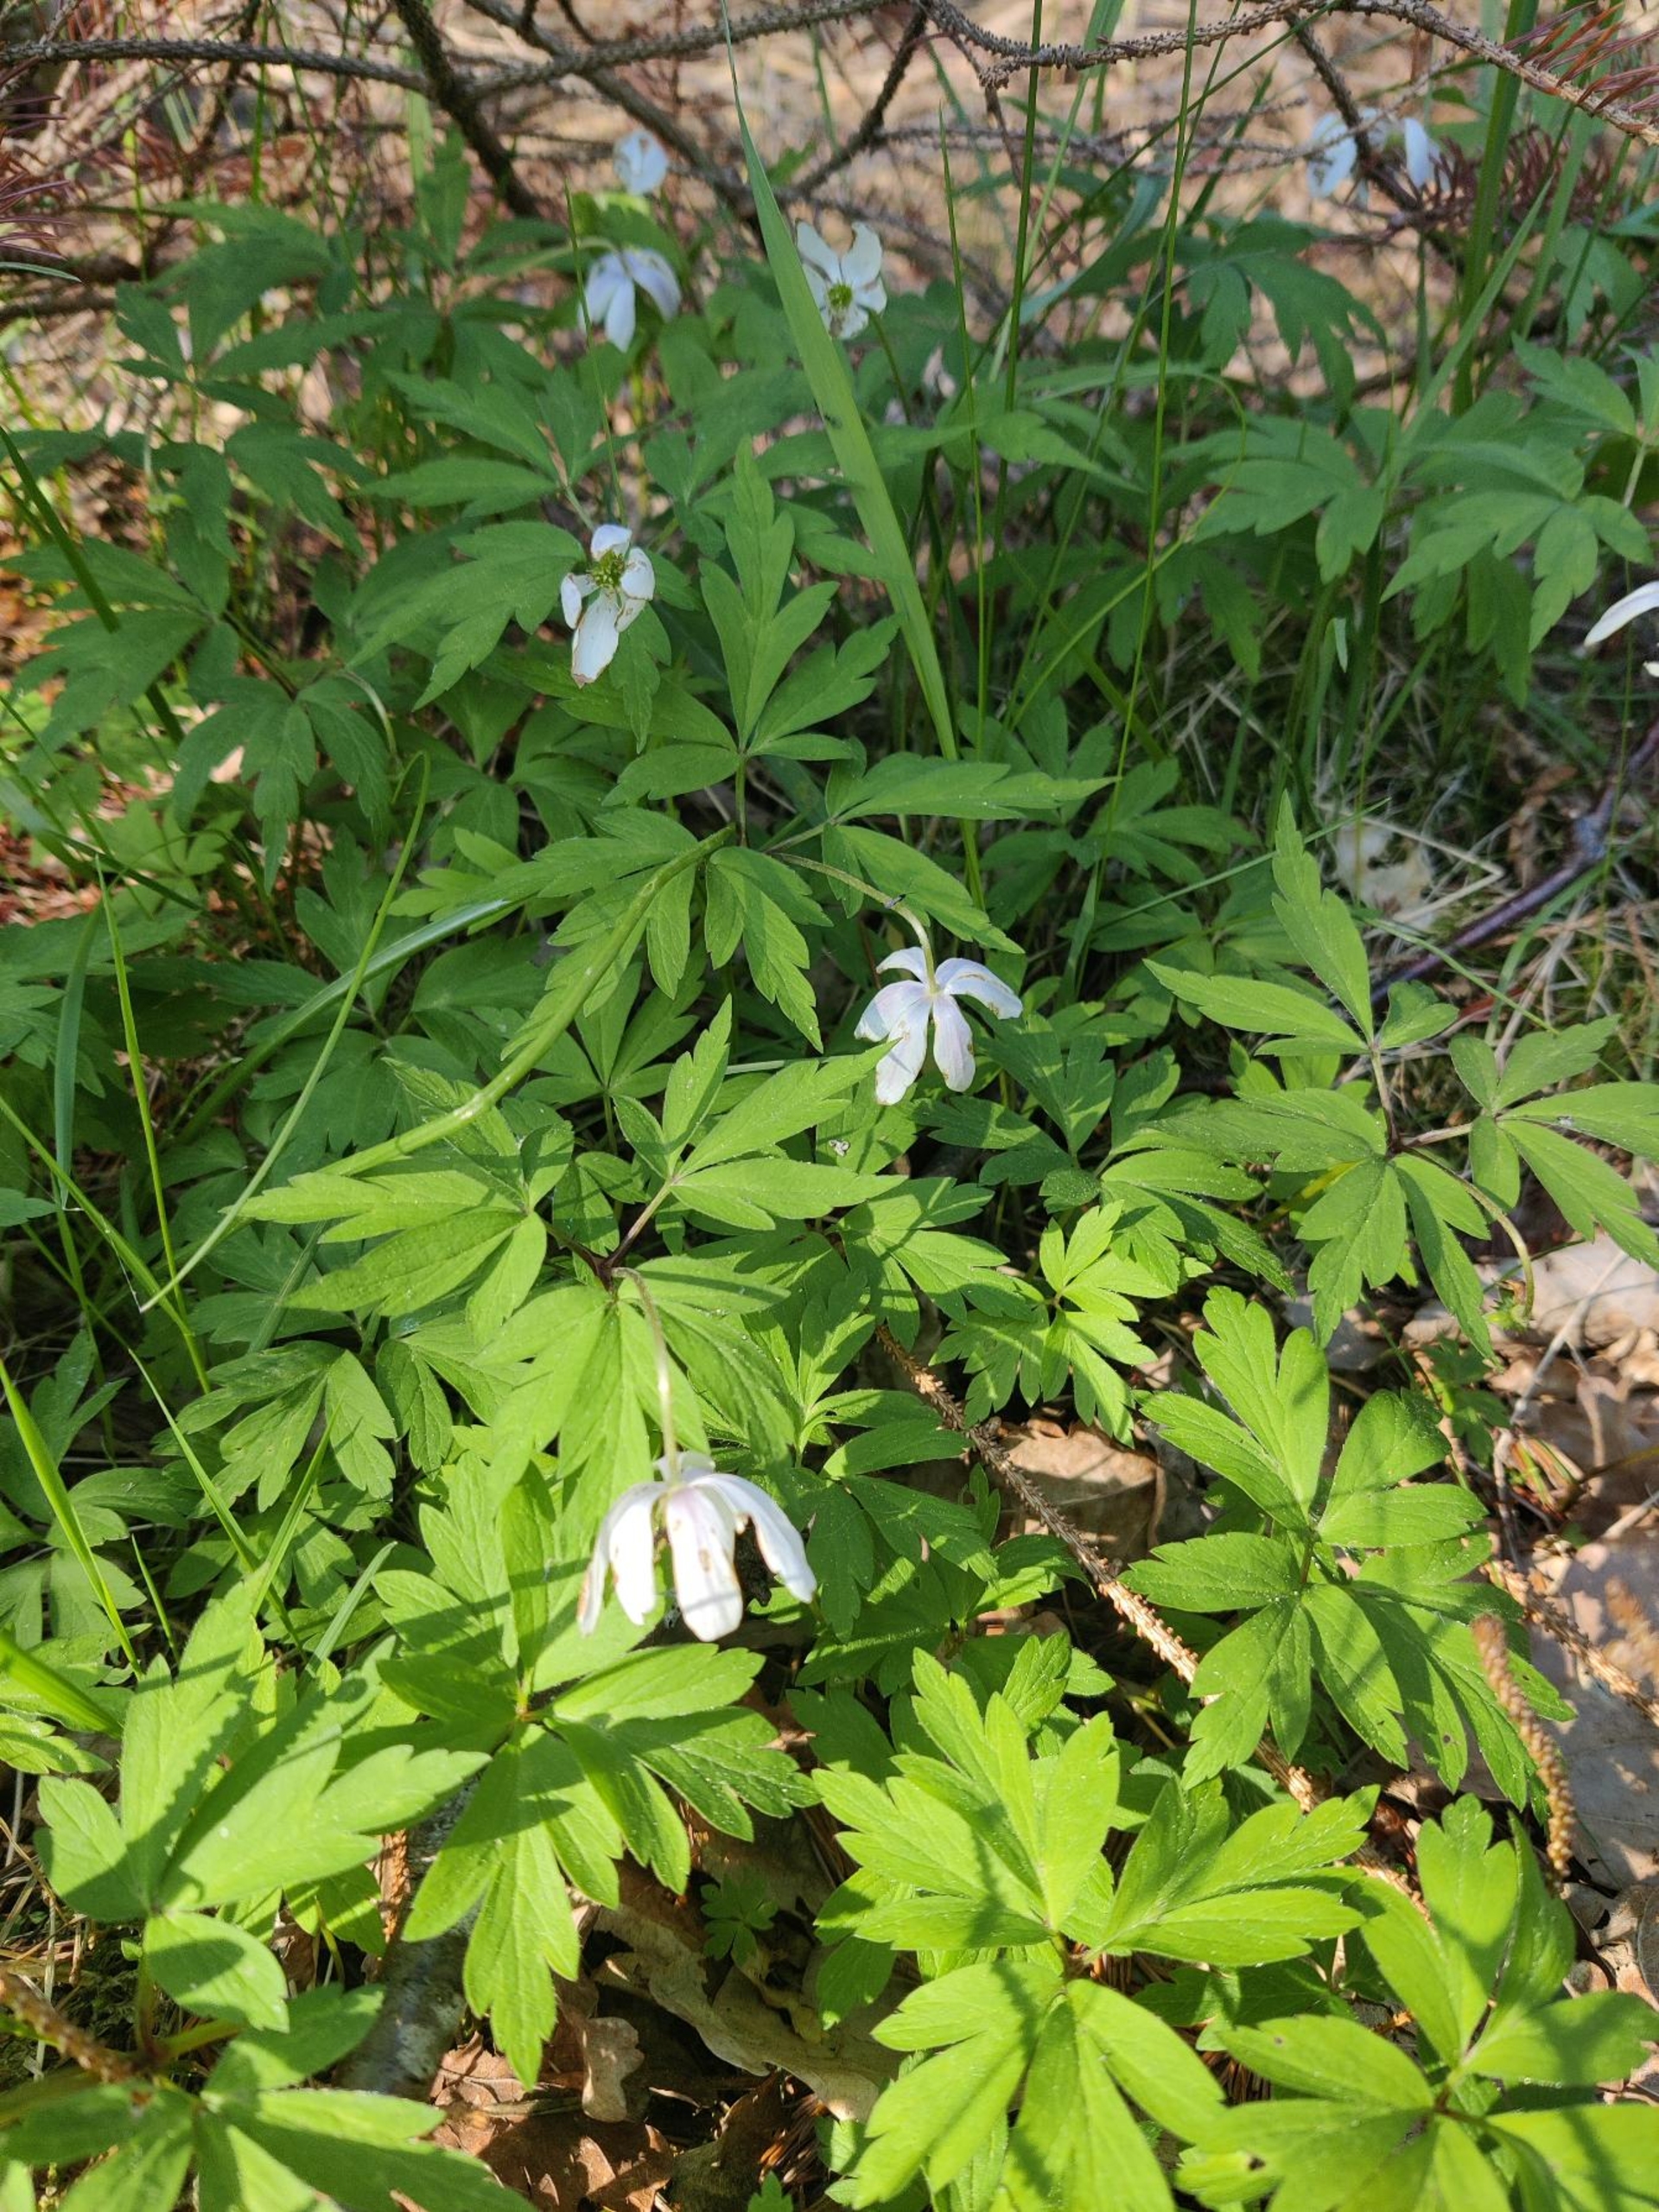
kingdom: Plantae
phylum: Tracheophyta
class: Magnoliopsida
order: Ranunculales
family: Ranunculaceae
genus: Anemone
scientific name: Anemone nemorosa
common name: Hvid anemone
